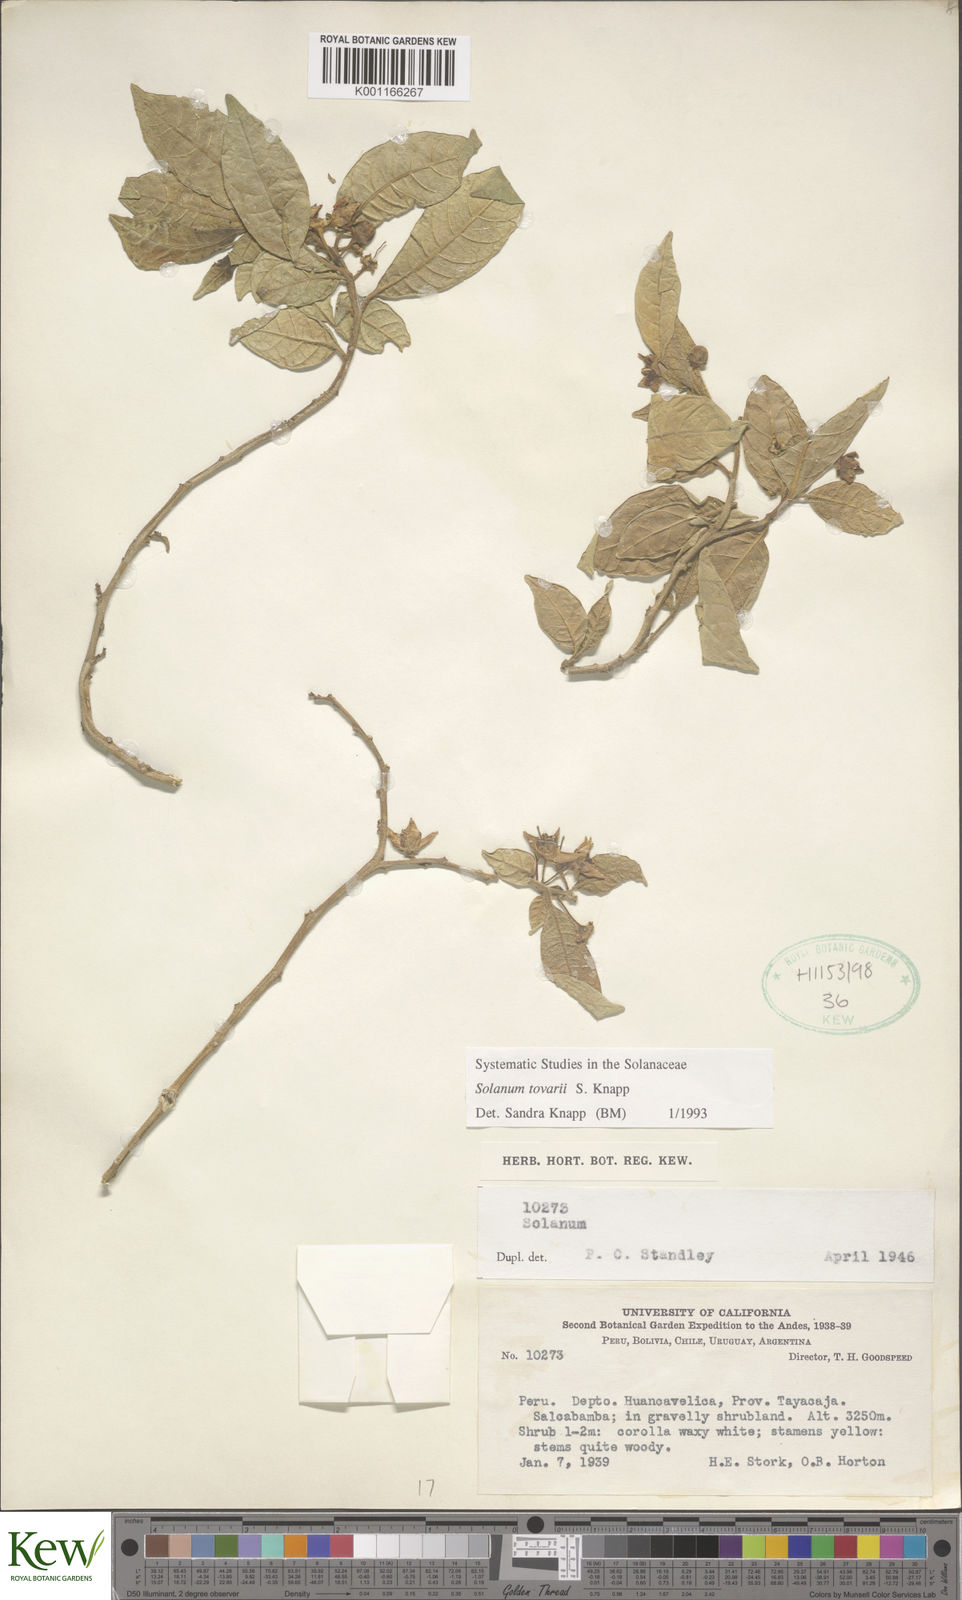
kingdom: Plantae
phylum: Tracheophyta
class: Magnoliopsida
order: Solanales
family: Solanaceae
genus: Solanum
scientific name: Solanum tovarii
